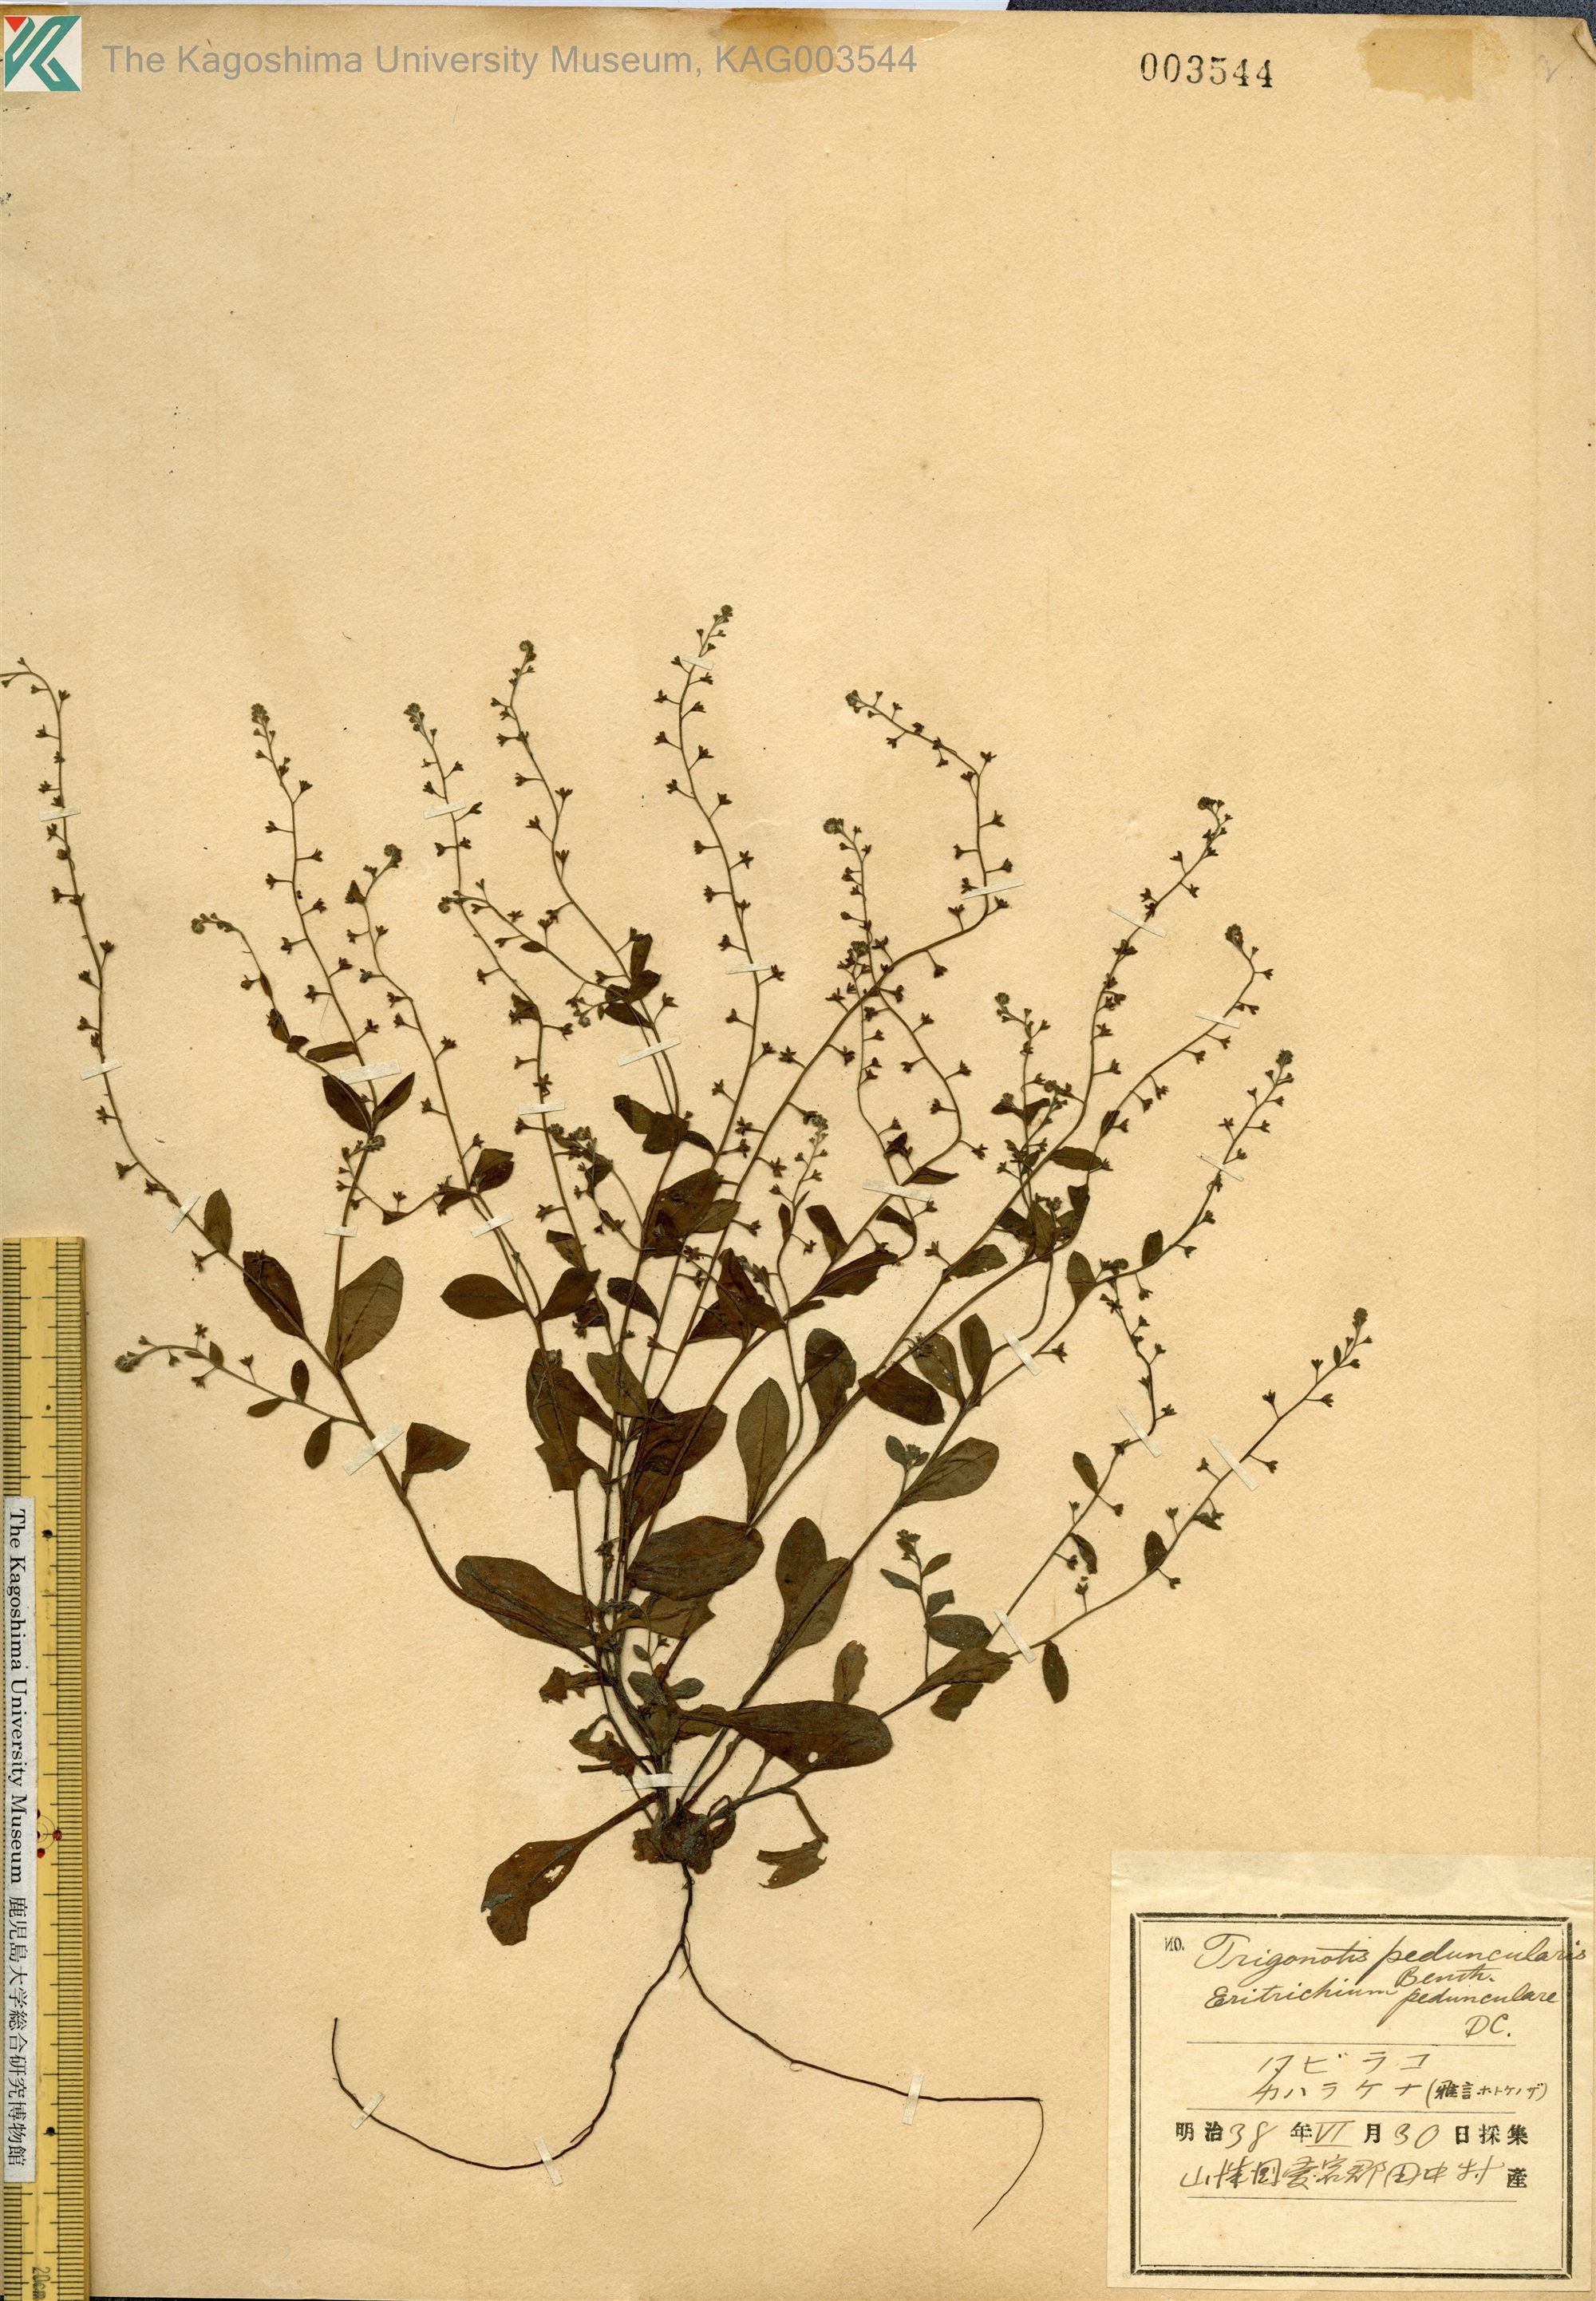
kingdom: Plantae
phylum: Tracheophyta
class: Magnoliopsida
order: Boraginales
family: Boraginaceae
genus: Trigonotis
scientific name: Trigonotis peduncularis
